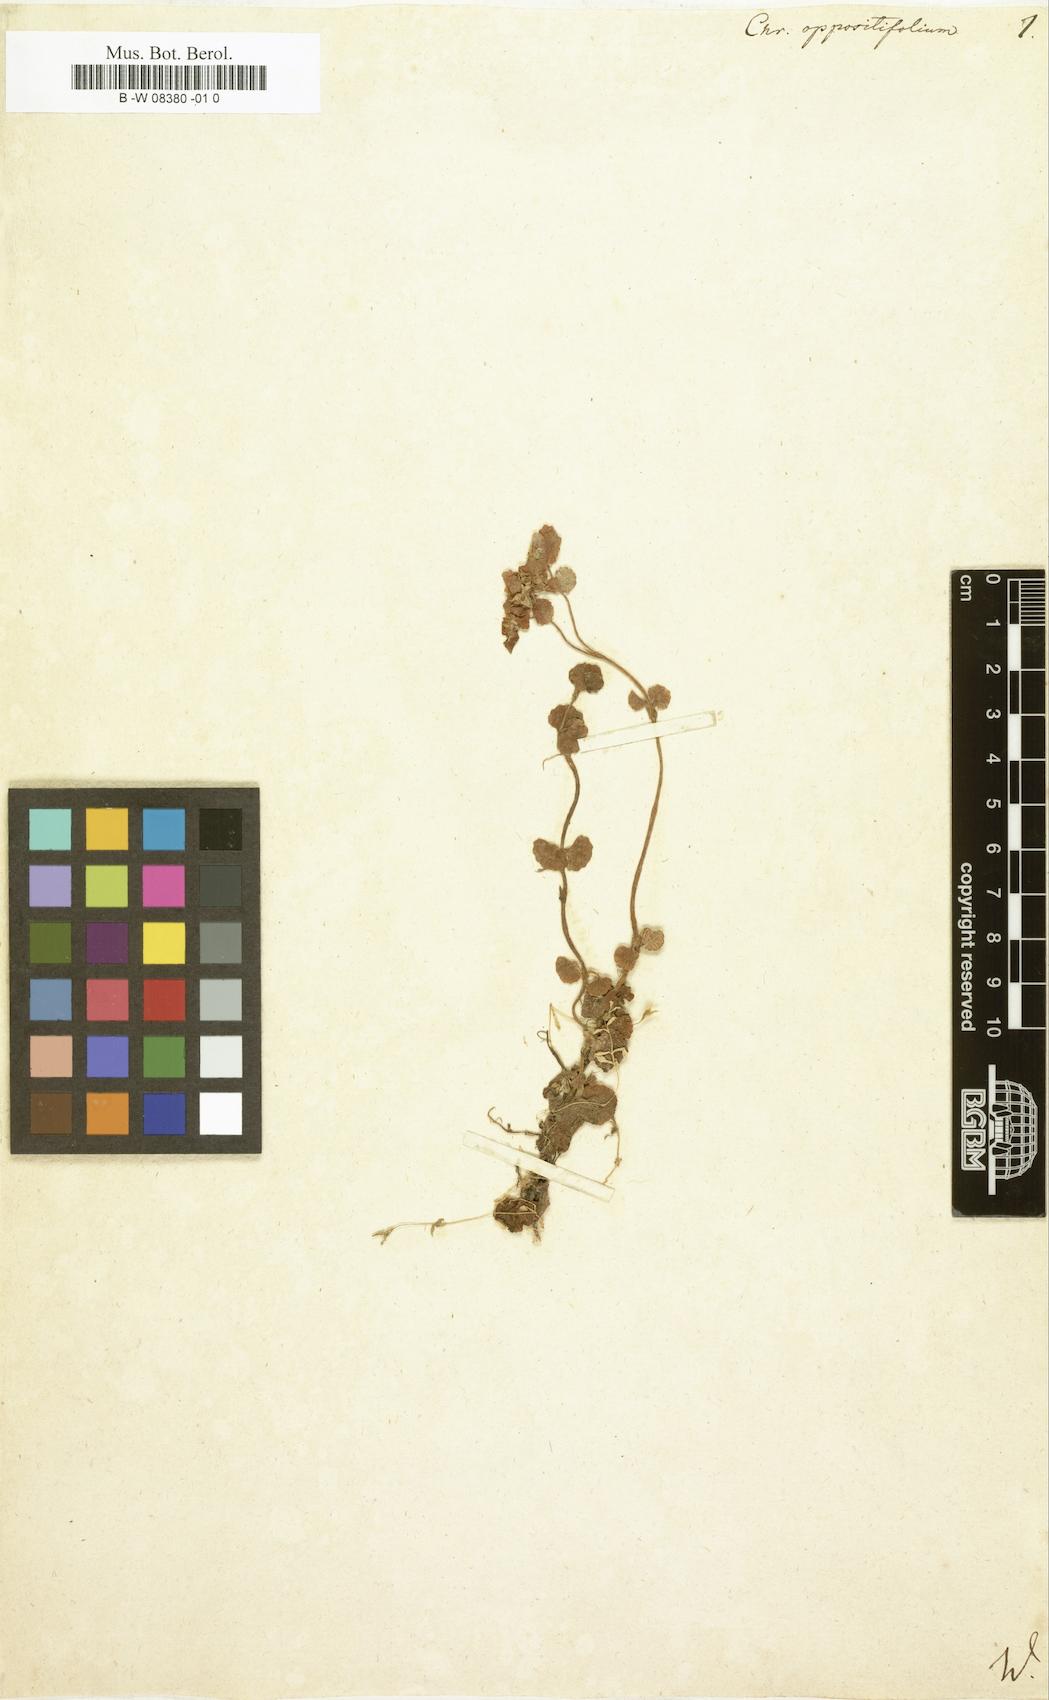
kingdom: Plantae
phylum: Tracheophyta
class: Magnoliopsida
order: Saxifragales
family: Saxifragaceae
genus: Chrysosplenium
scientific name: Chrysosplenium oppositifolium
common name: Opposite-leaved golden-saxifrage
